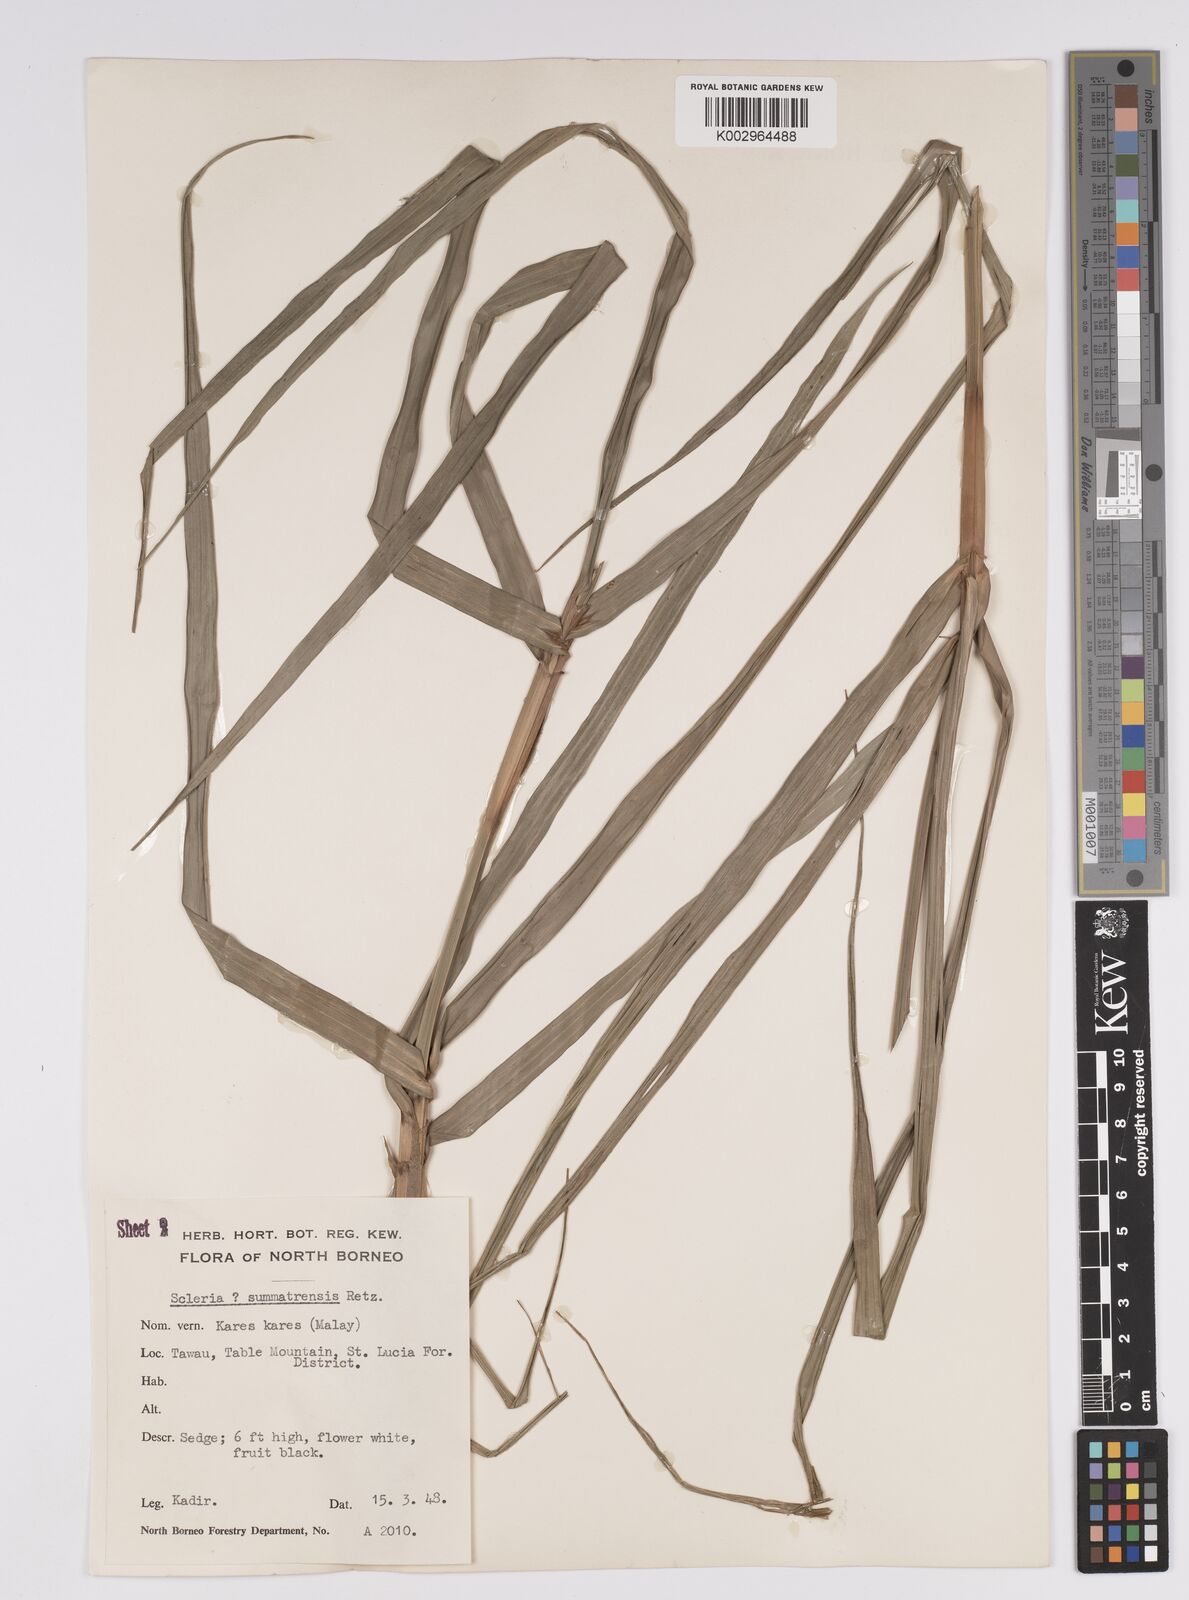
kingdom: Plantae
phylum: Tracheophyta
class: Liliopsida
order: Poales
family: Cyperaceae
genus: Scleria
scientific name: Scleria sumatrensis
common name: Sumatran scleria
